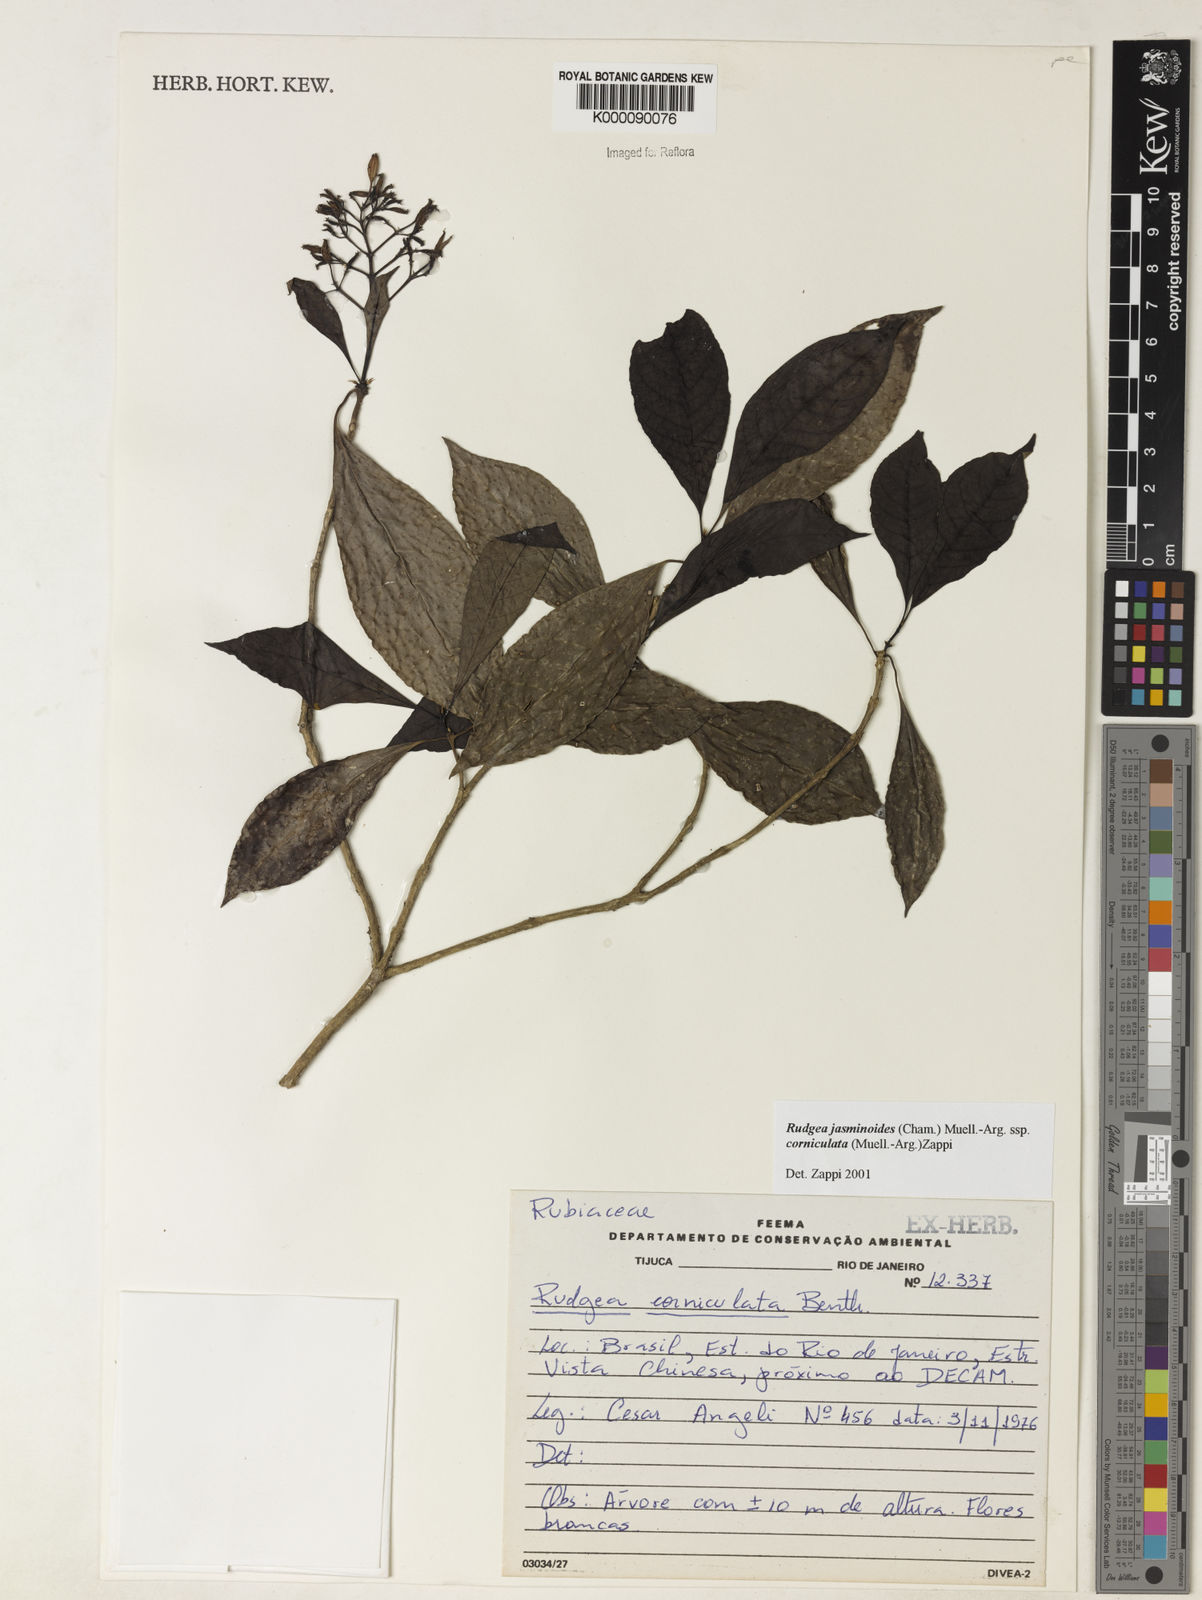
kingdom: Plantae
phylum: Tracheophyta
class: Magnoliopsida
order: Gentianales
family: Rubiaceae
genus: Rudgea
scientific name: Rudgea jasminoides
